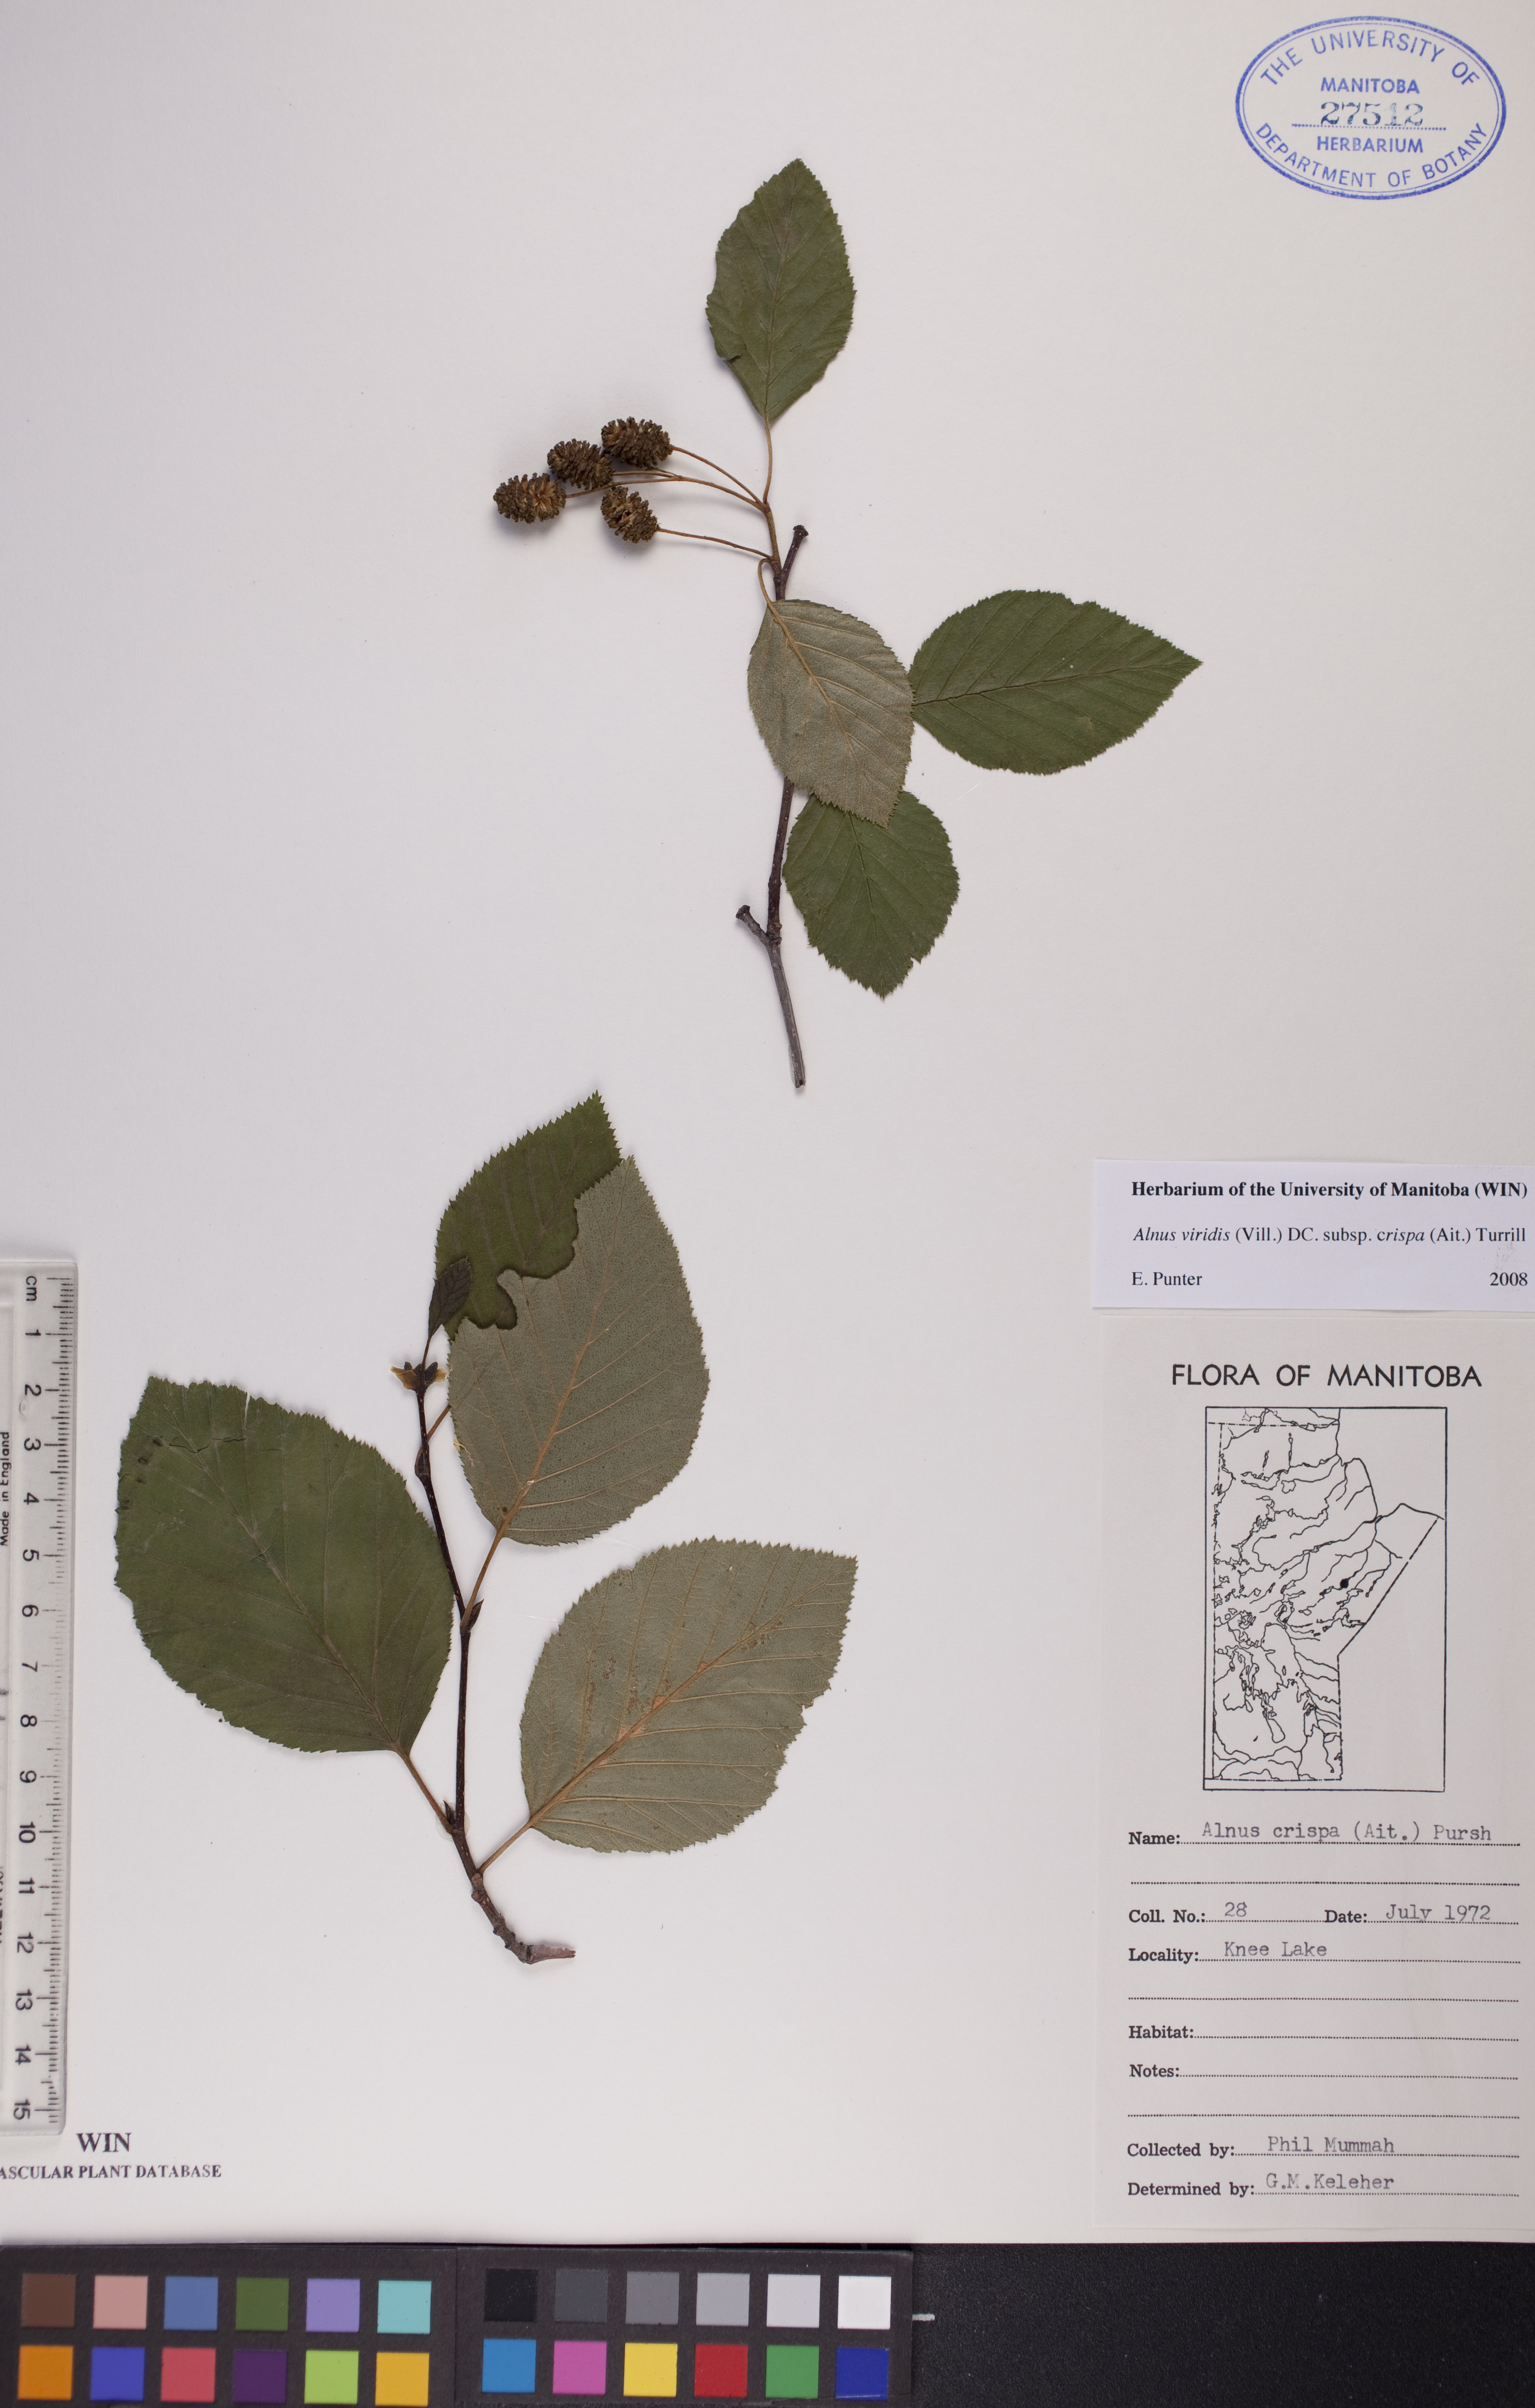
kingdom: Plantae
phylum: Tracheophyta
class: Magnoliopsida
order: Fagales
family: Betulaceae
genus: Alnus
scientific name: Alnus alnobetula
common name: Green alder
